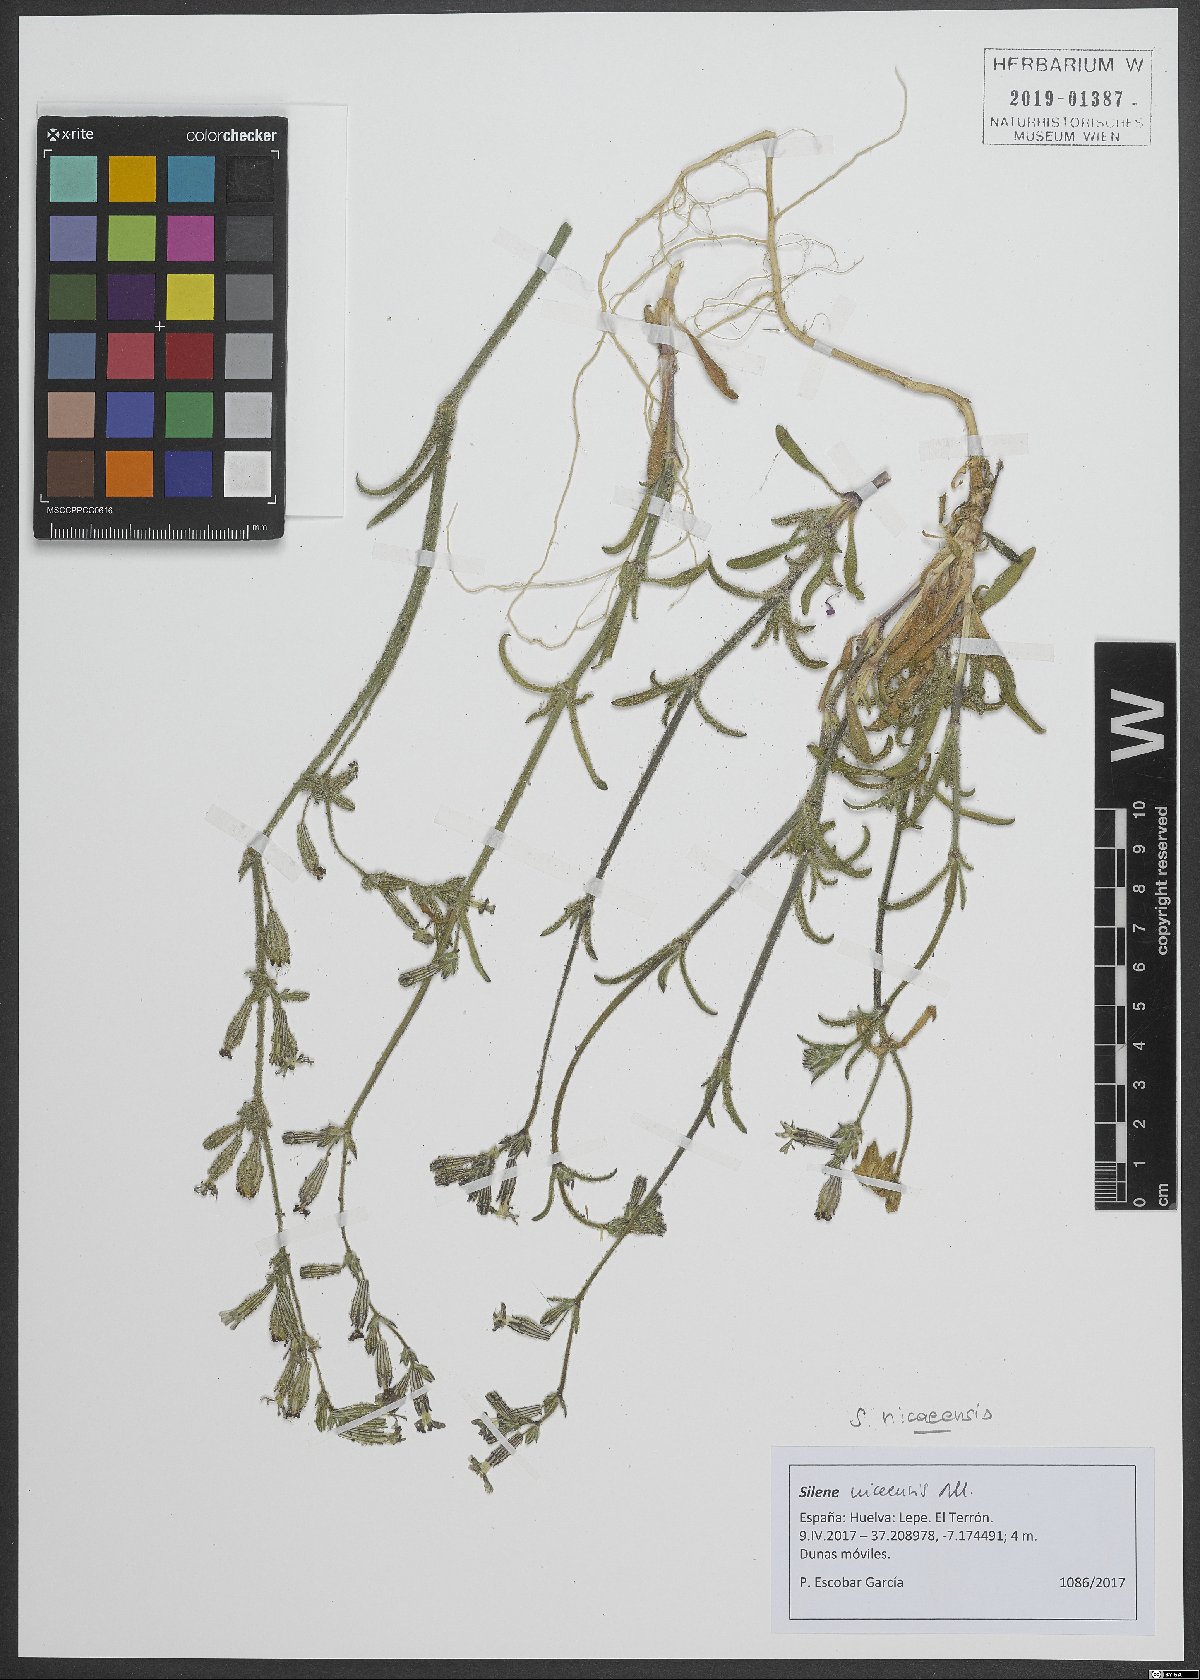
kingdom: Plantae
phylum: Tracheophyta
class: Magnoliopsida
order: Caryophyllales
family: Caryophyllaceae
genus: Silene
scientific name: Silene nicaeensis
